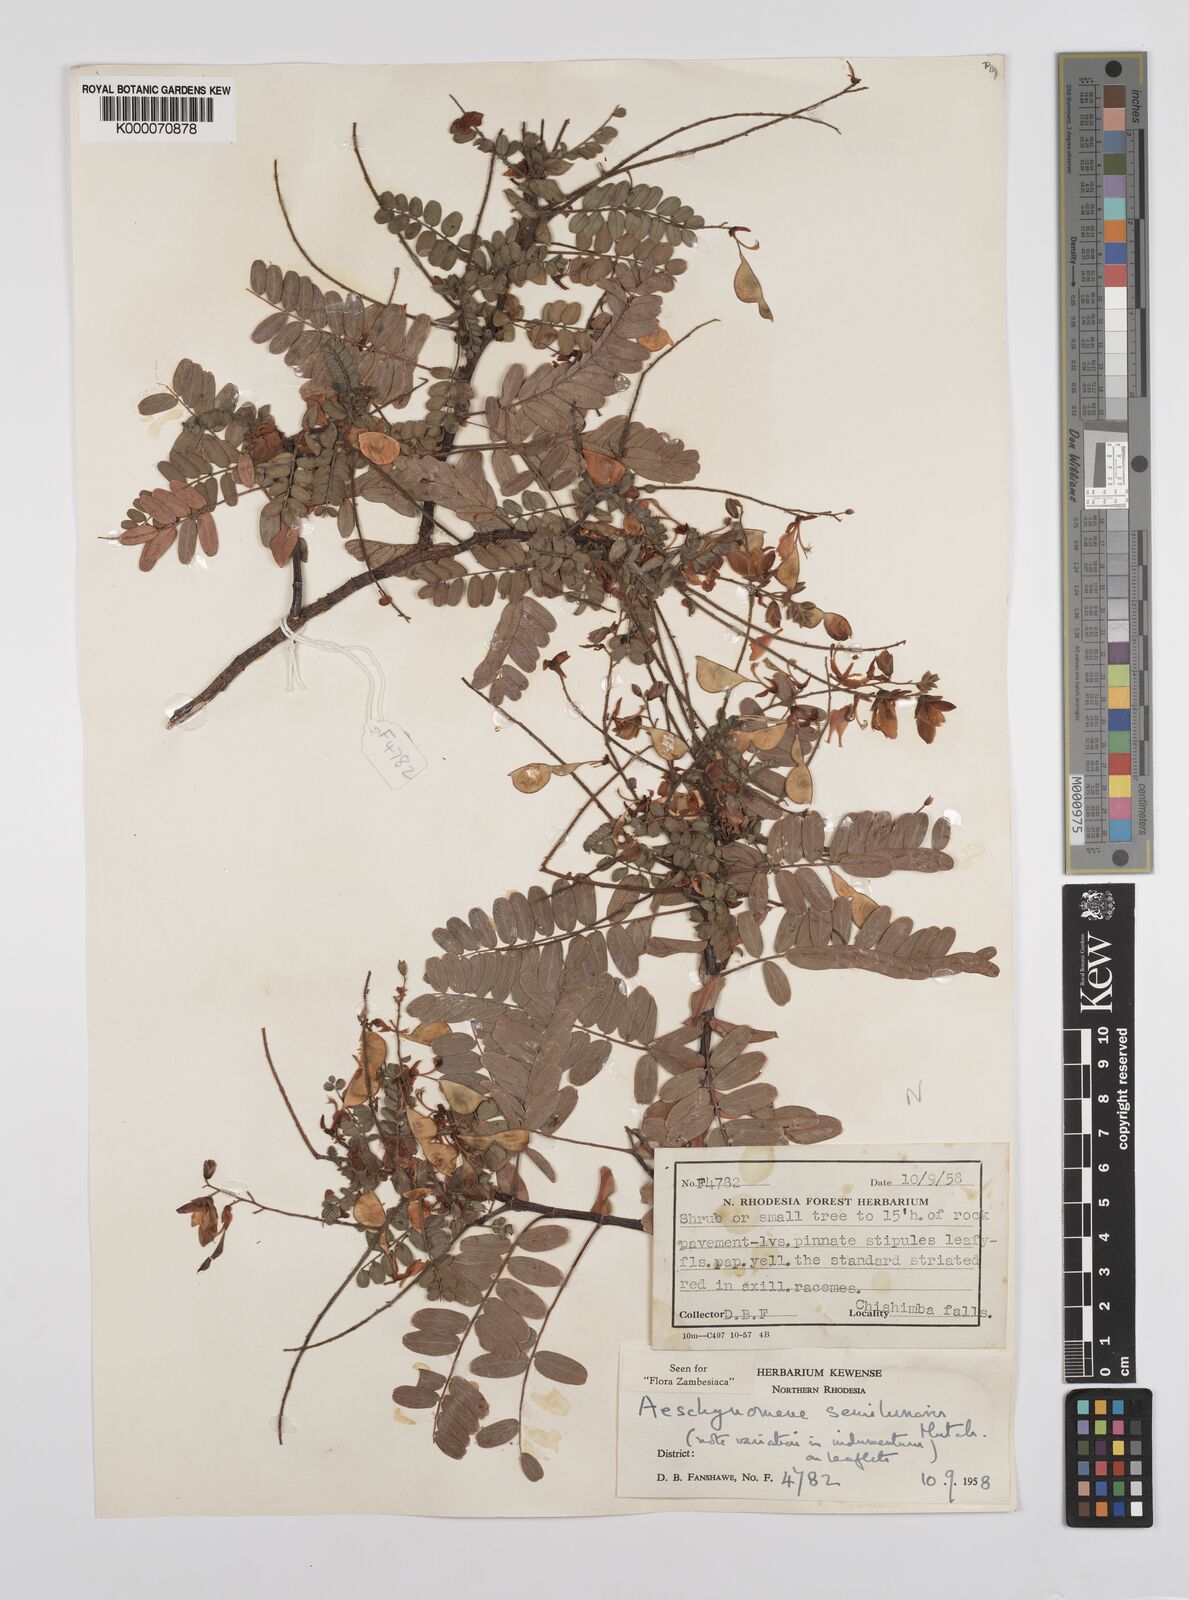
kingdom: Plantae
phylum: Tracheophyta
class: Magnoliopsida
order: Fabales
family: Fabaceae
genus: Aeschynomene
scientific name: Aeschynomene semilunaris
